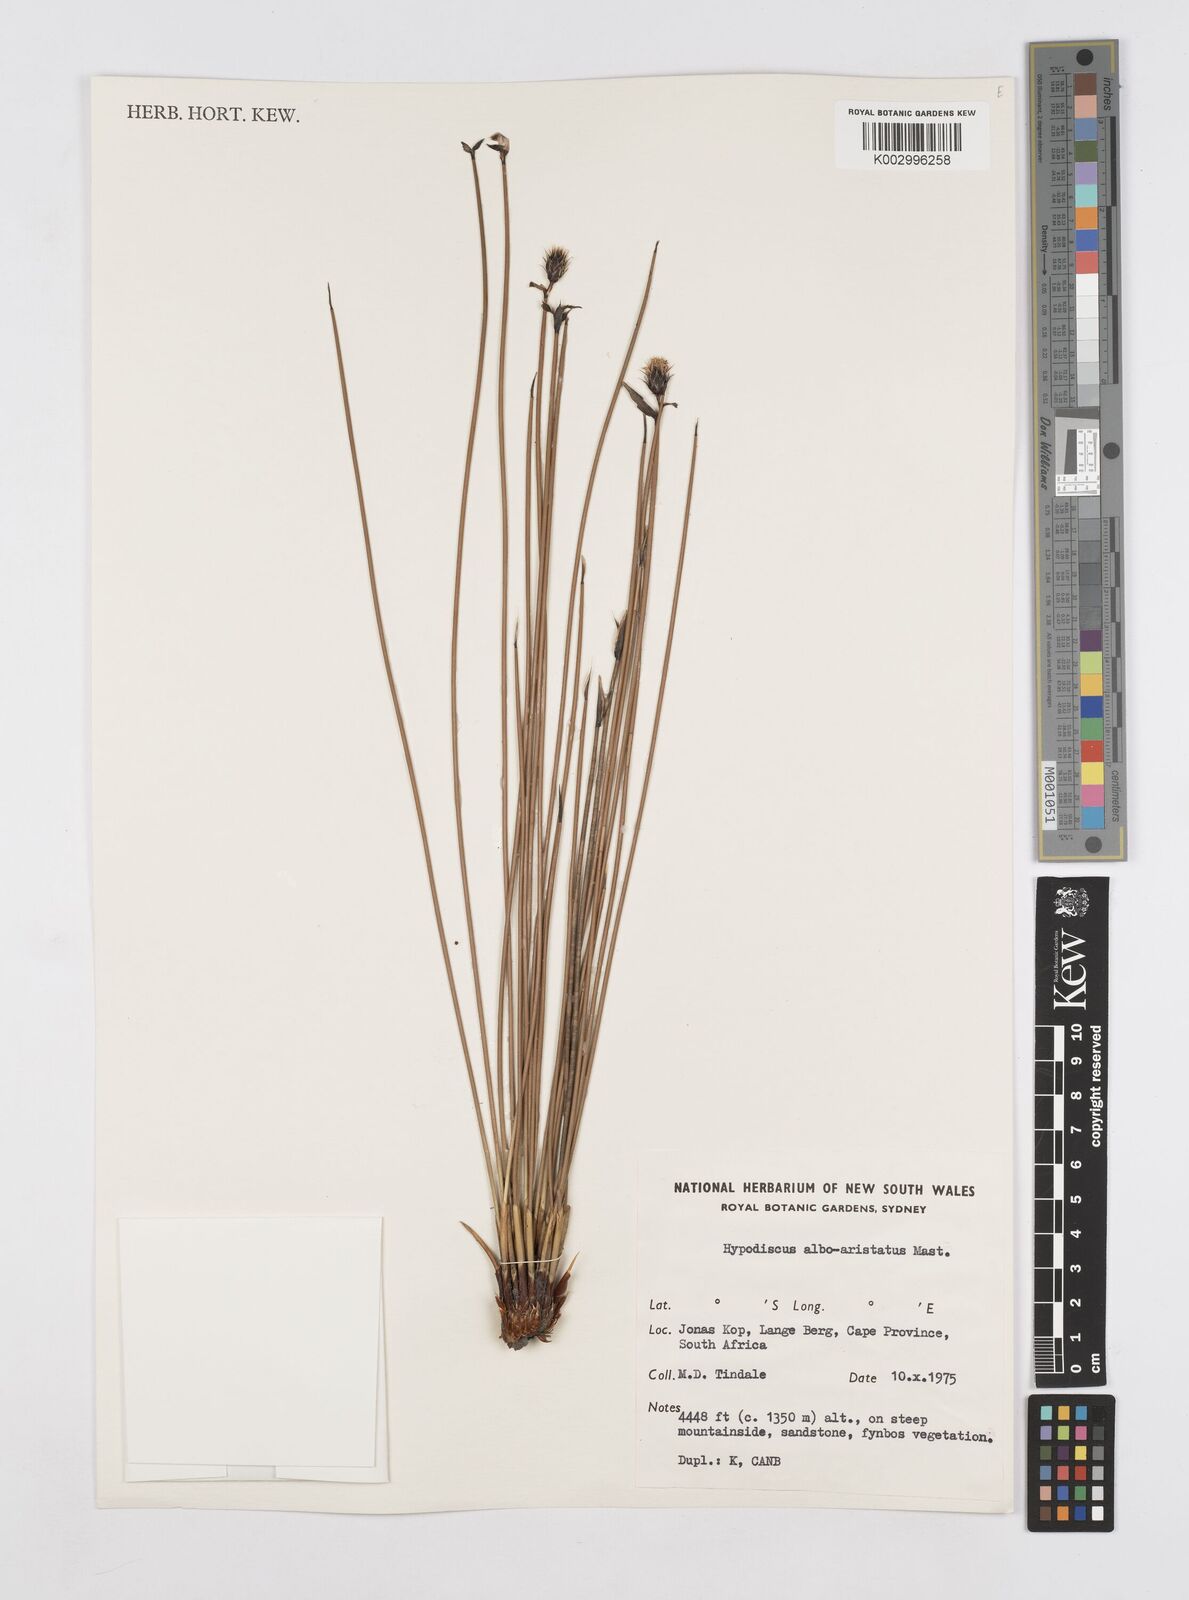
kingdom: Plantae
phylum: Tracheophyta
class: Liliopsida
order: Poales
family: Restionaceae
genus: Hypodiscus
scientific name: Hypodiscus alboaristatus
